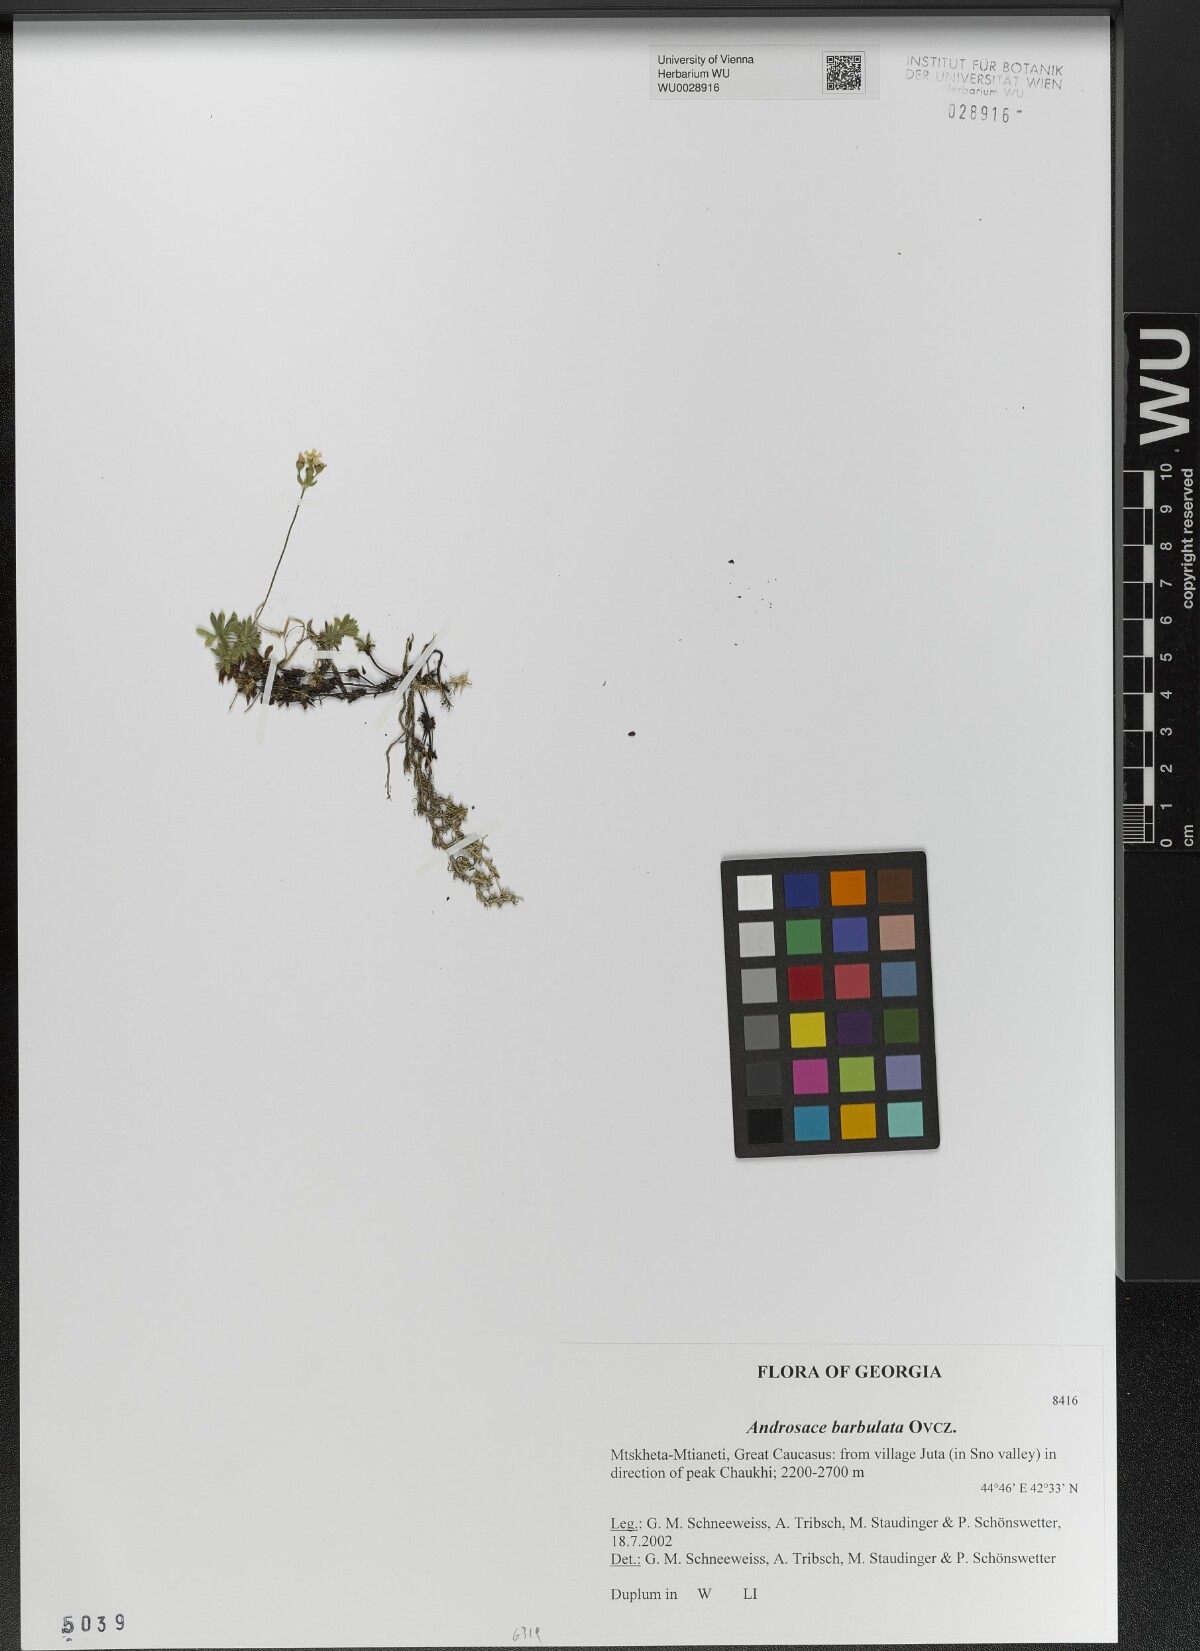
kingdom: Plantae
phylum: Tracheophyta
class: Magnoliopsida
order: Ericales
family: Primulaceae
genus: Androsace
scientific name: Androsace villosa
